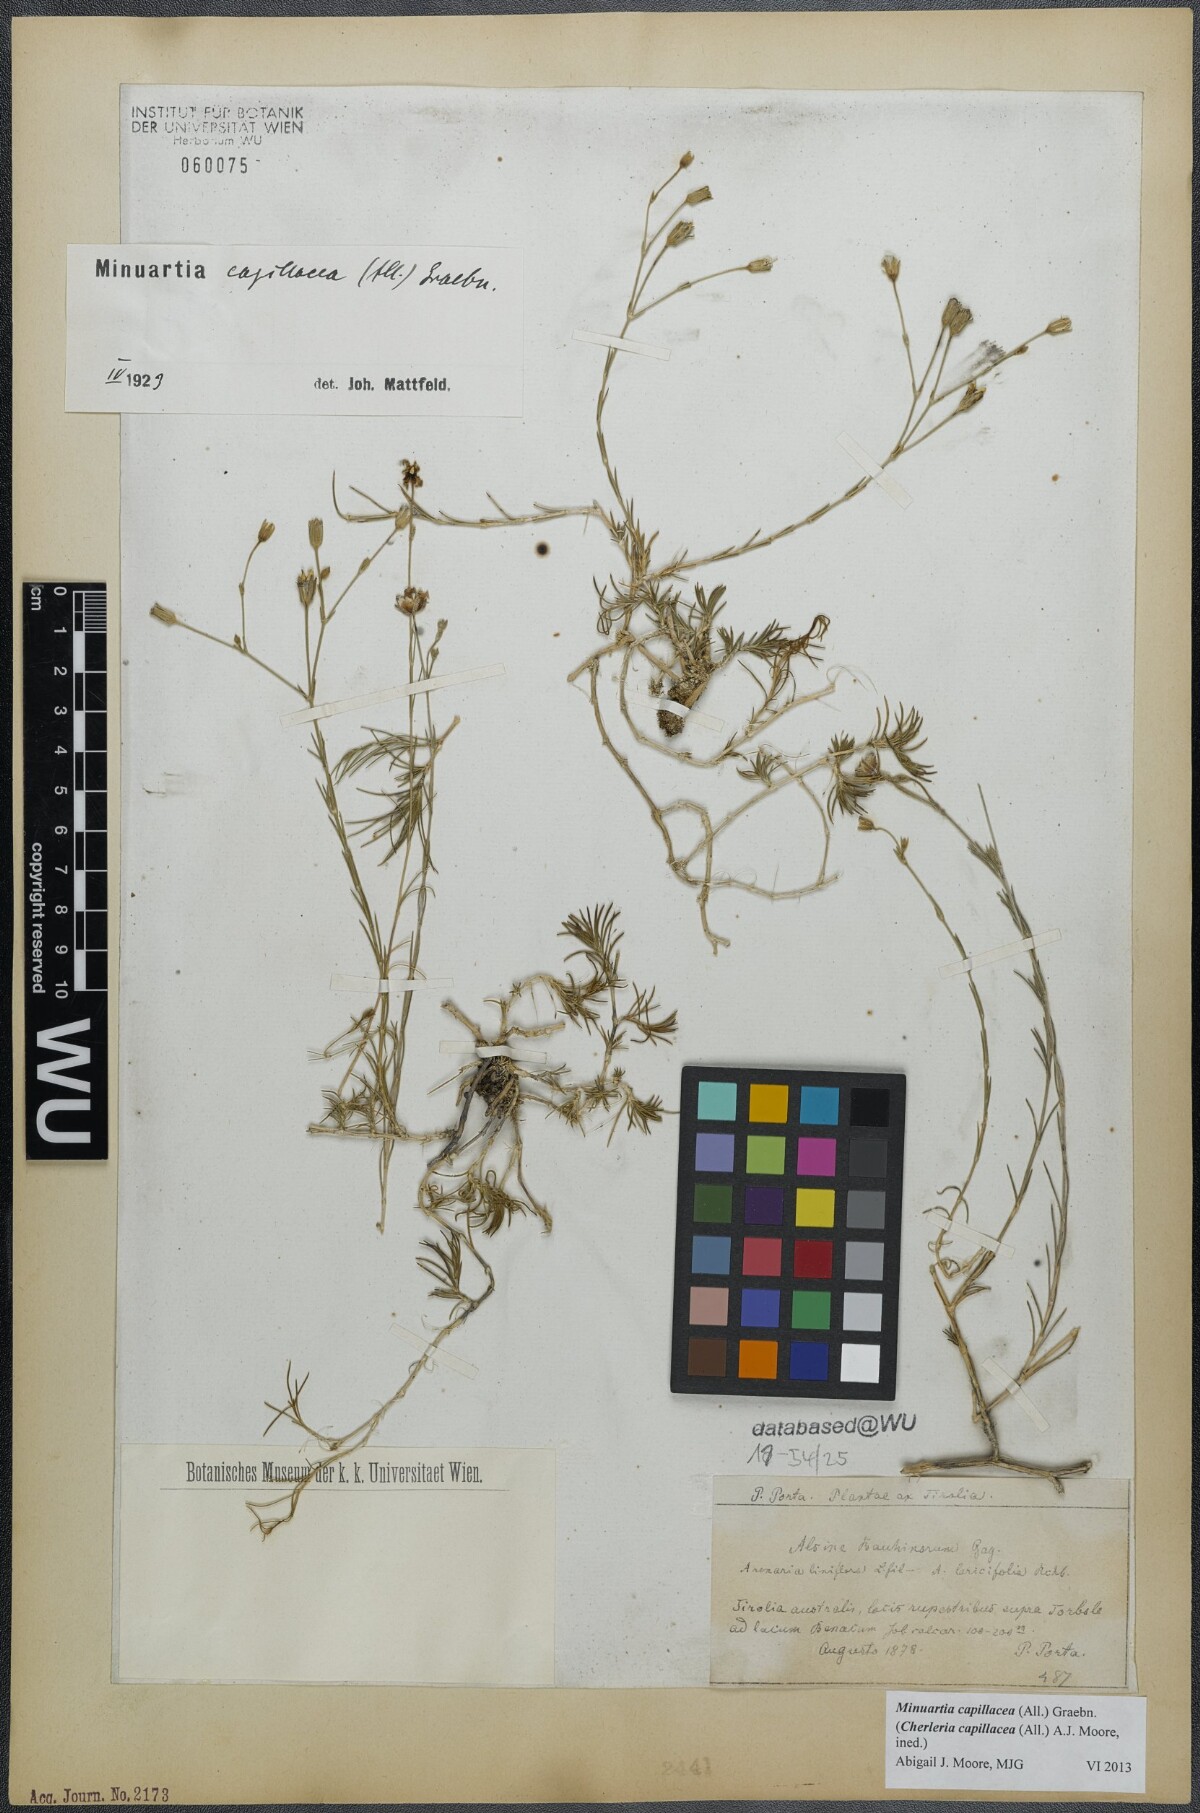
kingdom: Plantae
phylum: Tracheophyta
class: Magnoliopsida
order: Caryophyllales
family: Caryophyllaceae
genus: Cherleria
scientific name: Cherleria capillacea
